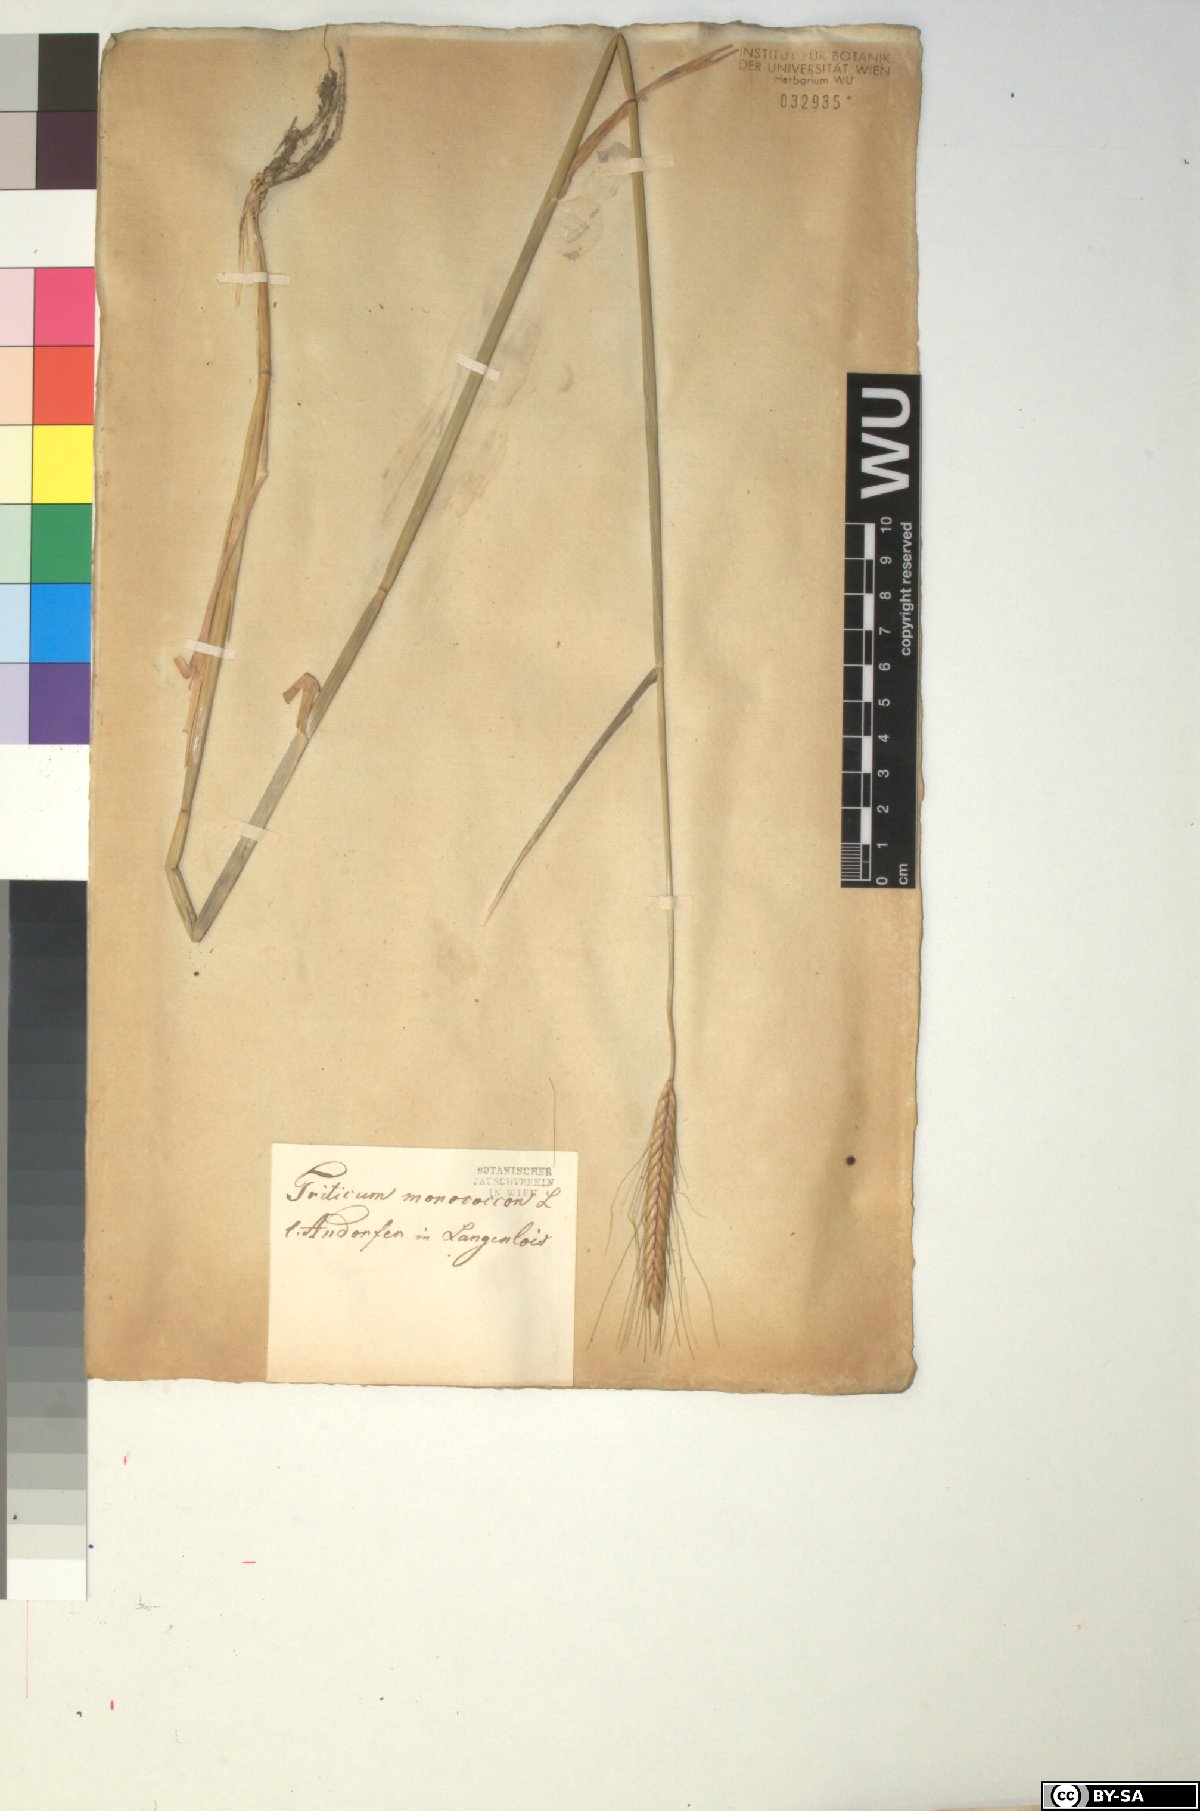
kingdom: Plantae
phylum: Tracheophyta
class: Liliopsida
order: Poales
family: Poaceae
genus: Triticum
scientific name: Triticum monococcum
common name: Einkorn
